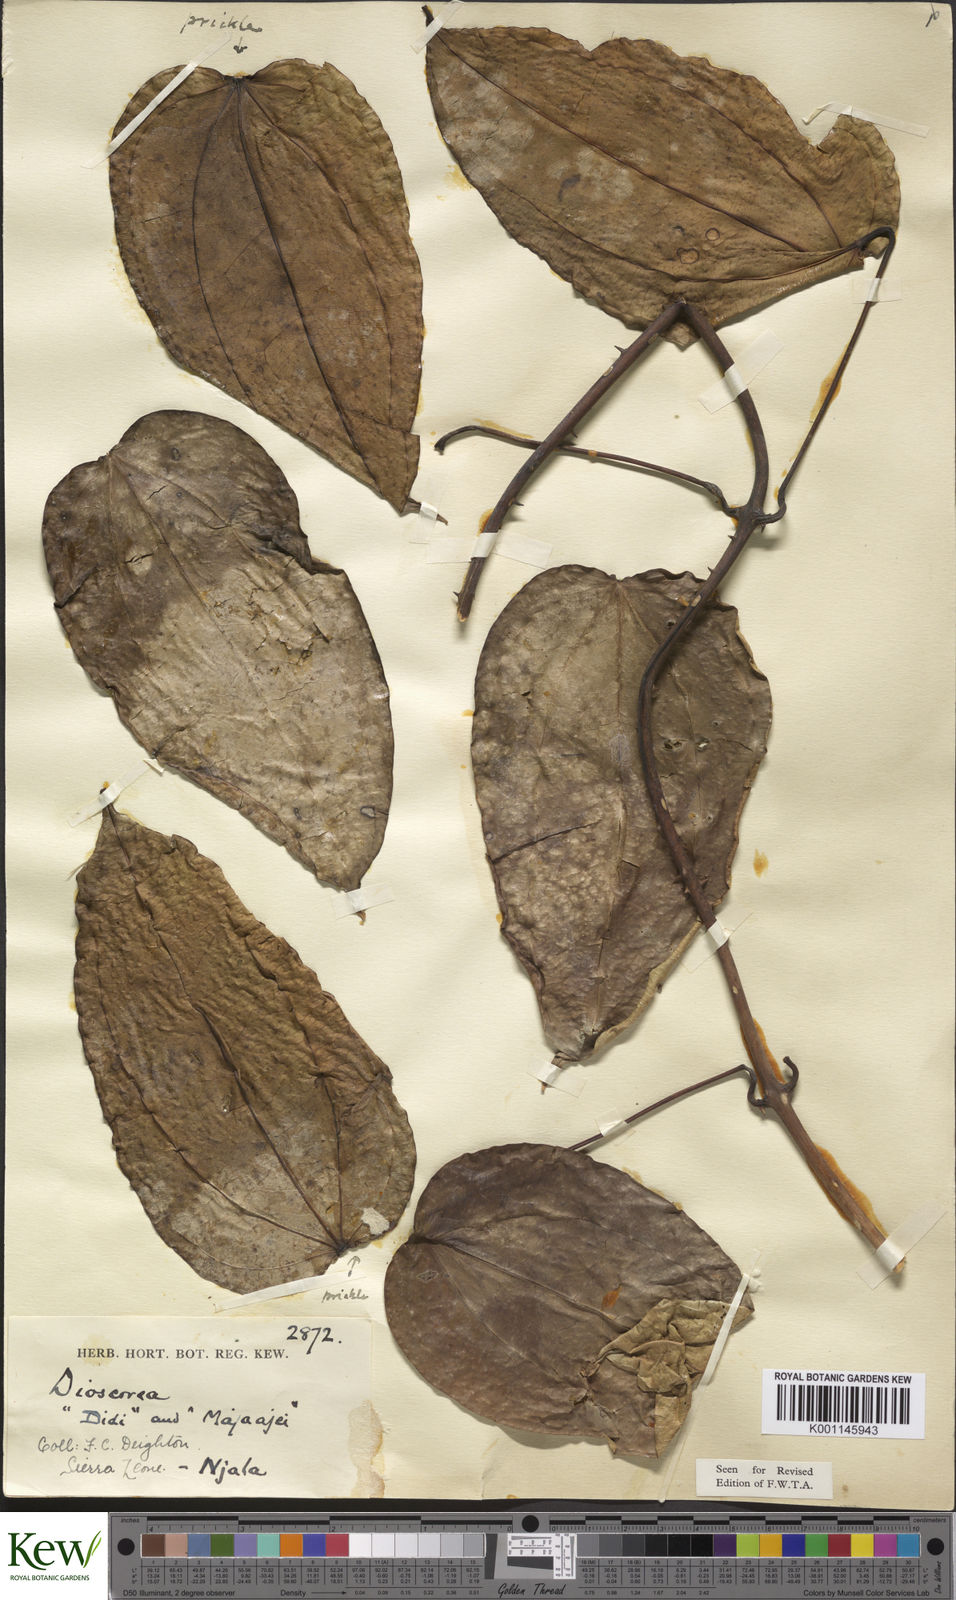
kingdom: Plantae
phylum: Tracheophyta
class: Liliopsida
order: Dioscoreales
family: Dioscoreaceae
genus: Dioscorea
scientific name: Dioscorea praehensilis
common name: Bush yam
